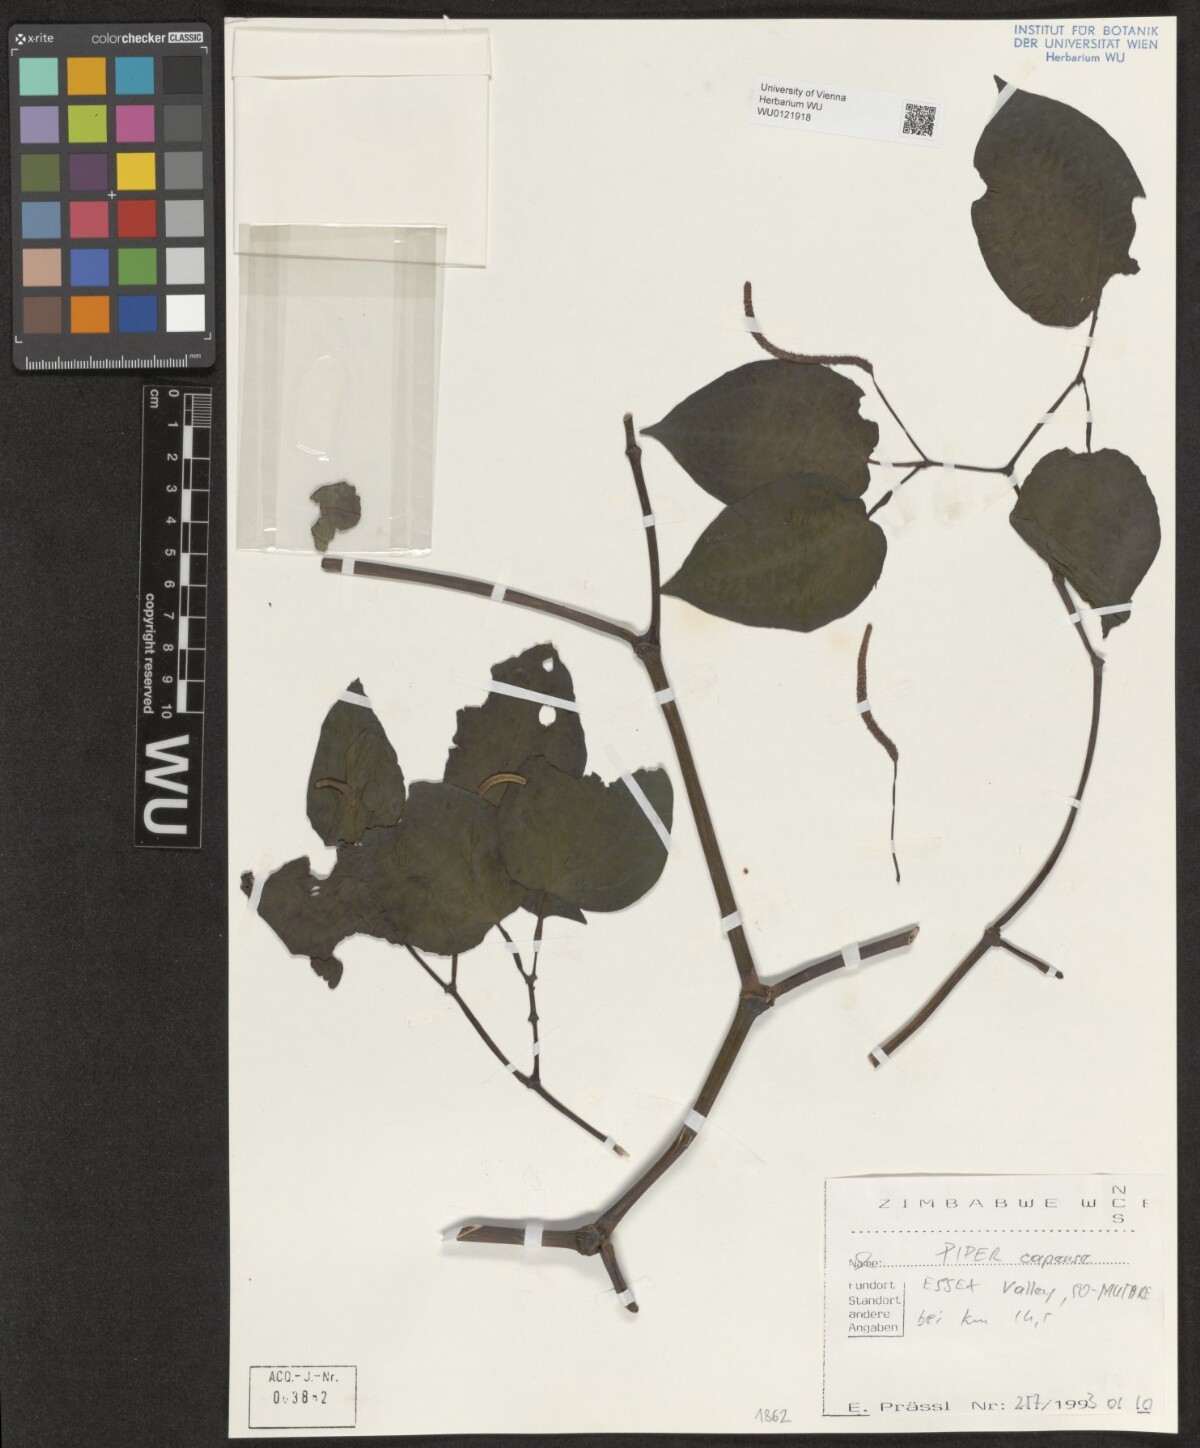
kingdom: Plantae
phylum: Tracheophyta
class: Magnoliopsida
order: Piperales
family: Piperaceae
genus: Piper
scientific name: Piper capense
